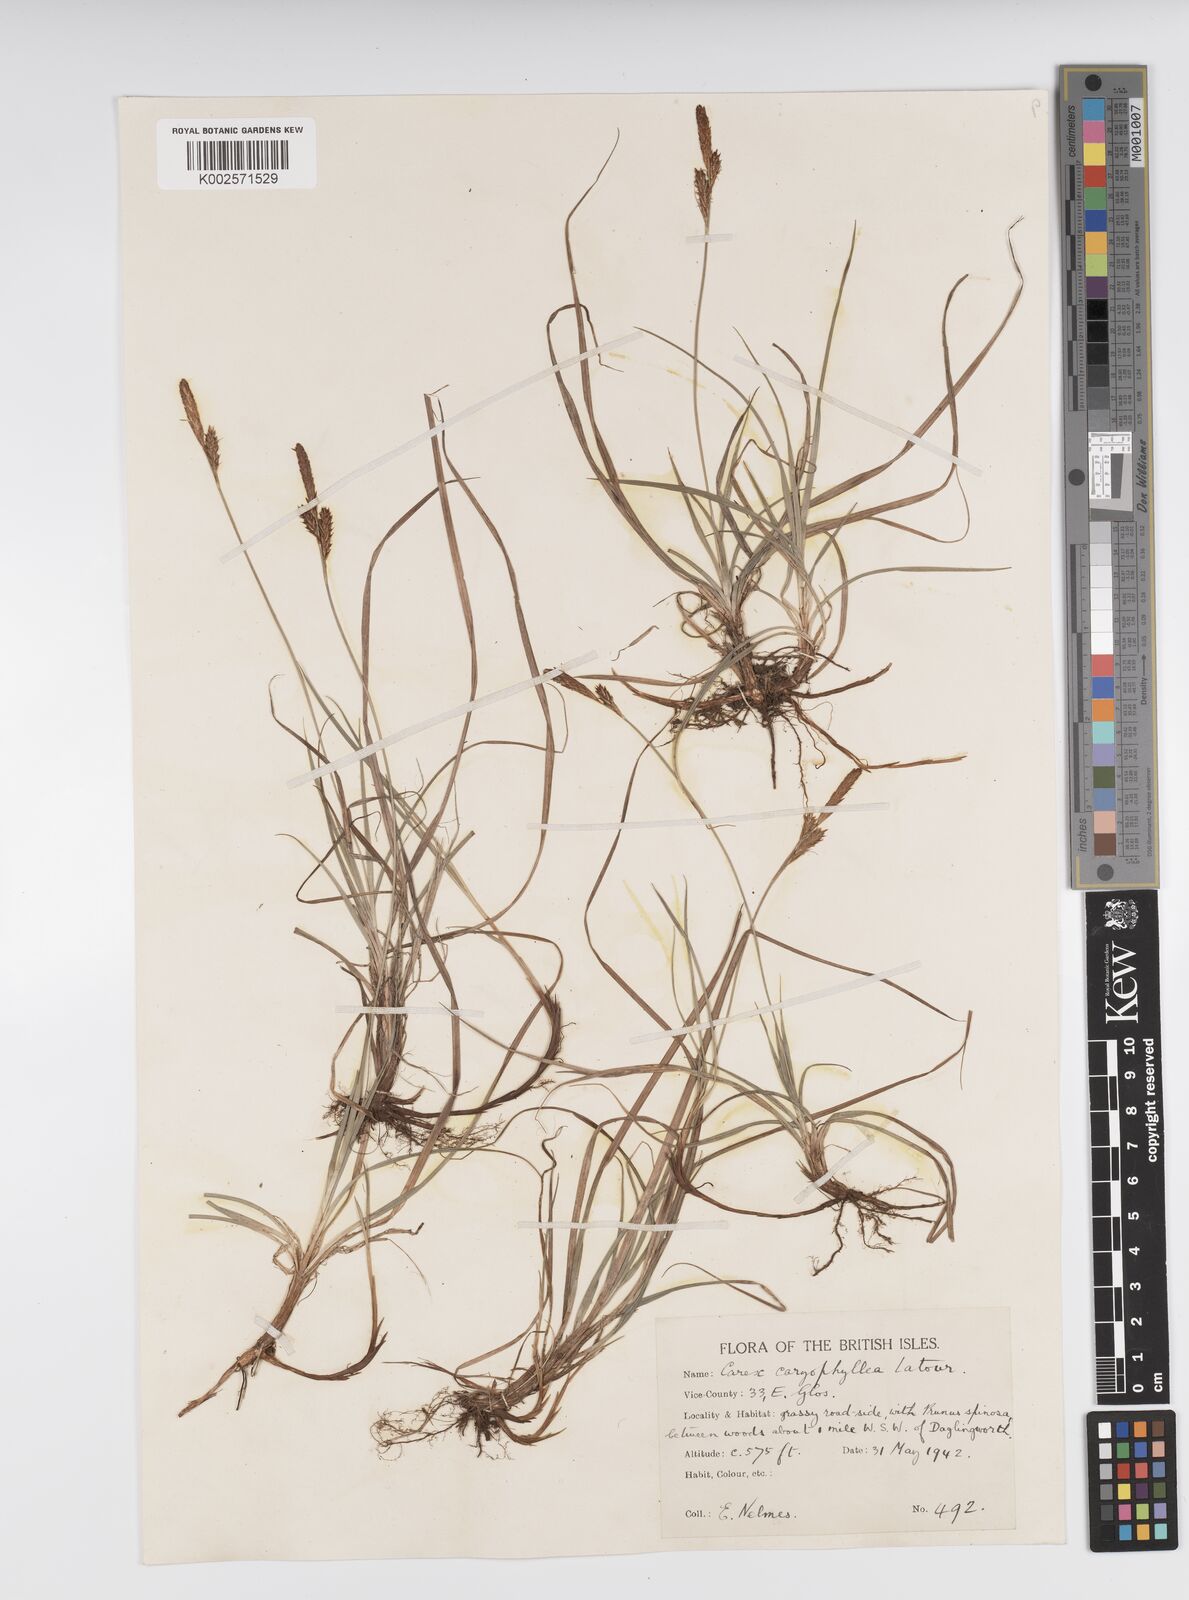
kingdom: Plantae
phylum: Tracheophyta
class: Liliopsida
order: Poales
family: Cyperaceae
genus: Carex
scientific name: Carex caryophyllea
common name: Spring sedge
